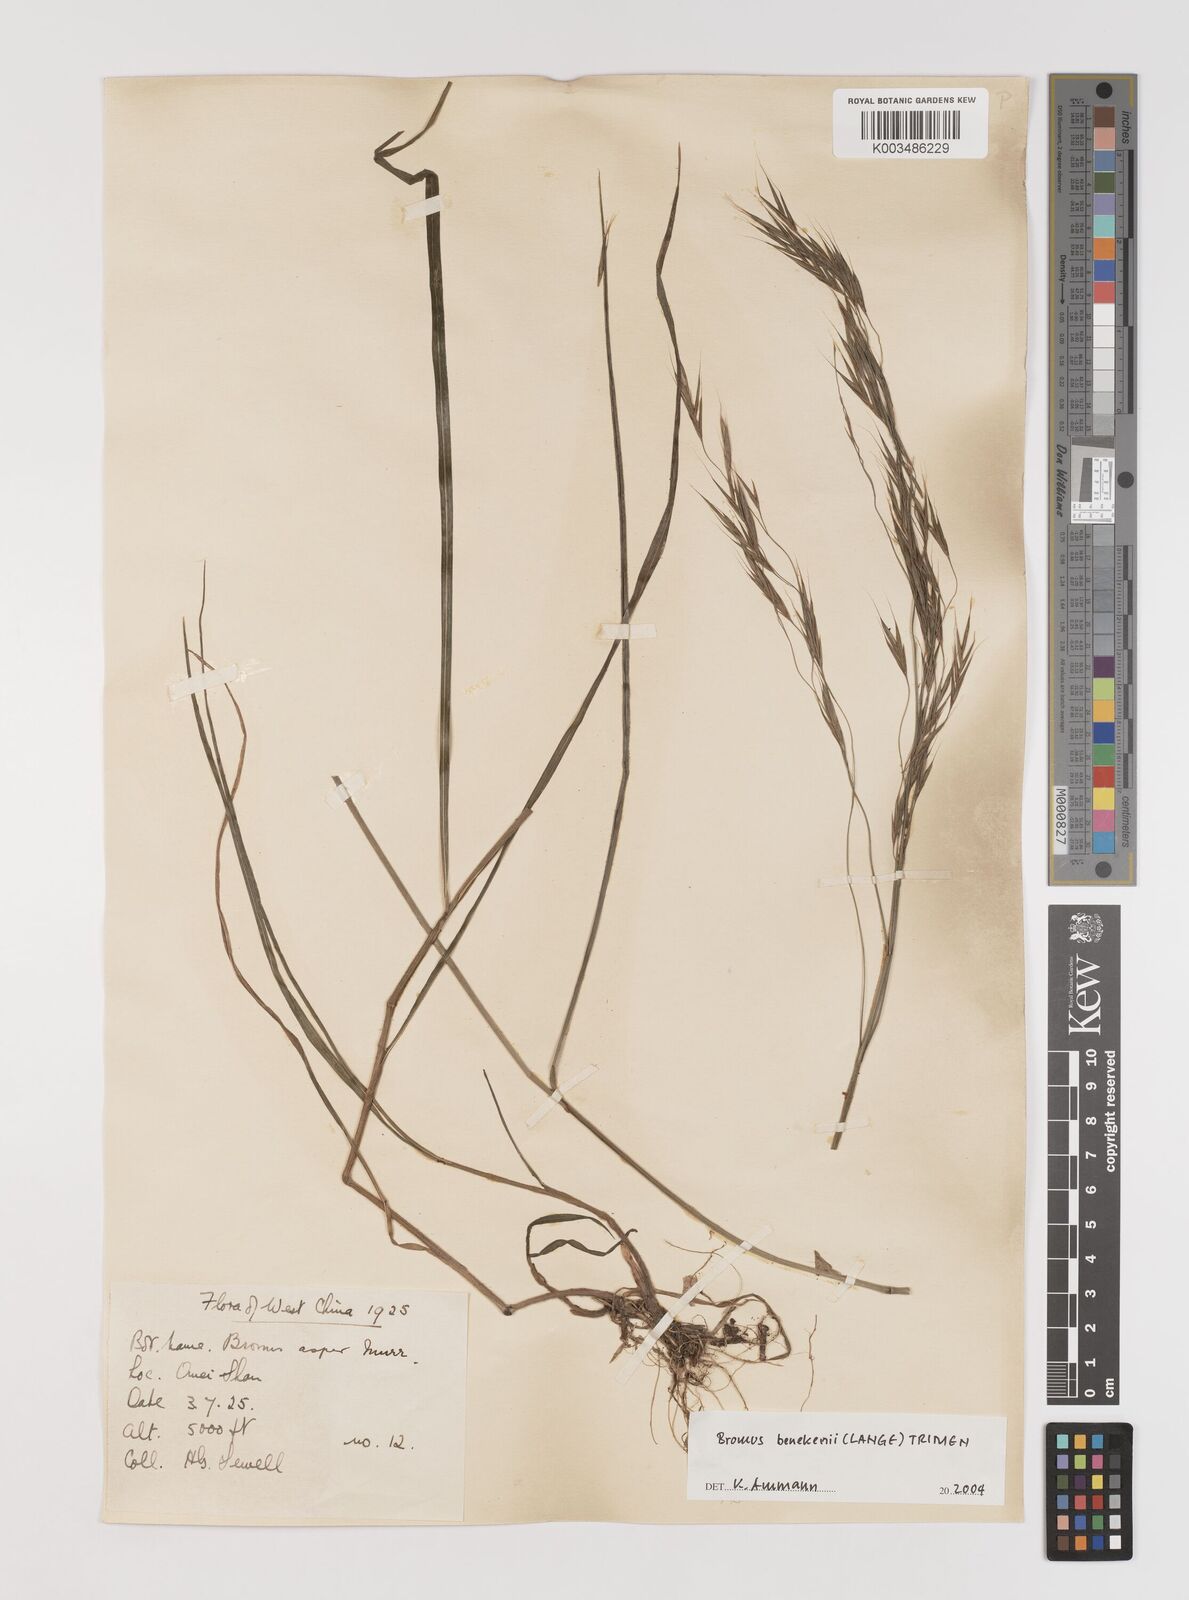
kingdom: Plantae
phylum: Tracheophyta
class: Liliopsida
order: Poales
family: Poaceae
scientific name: Poaceae
